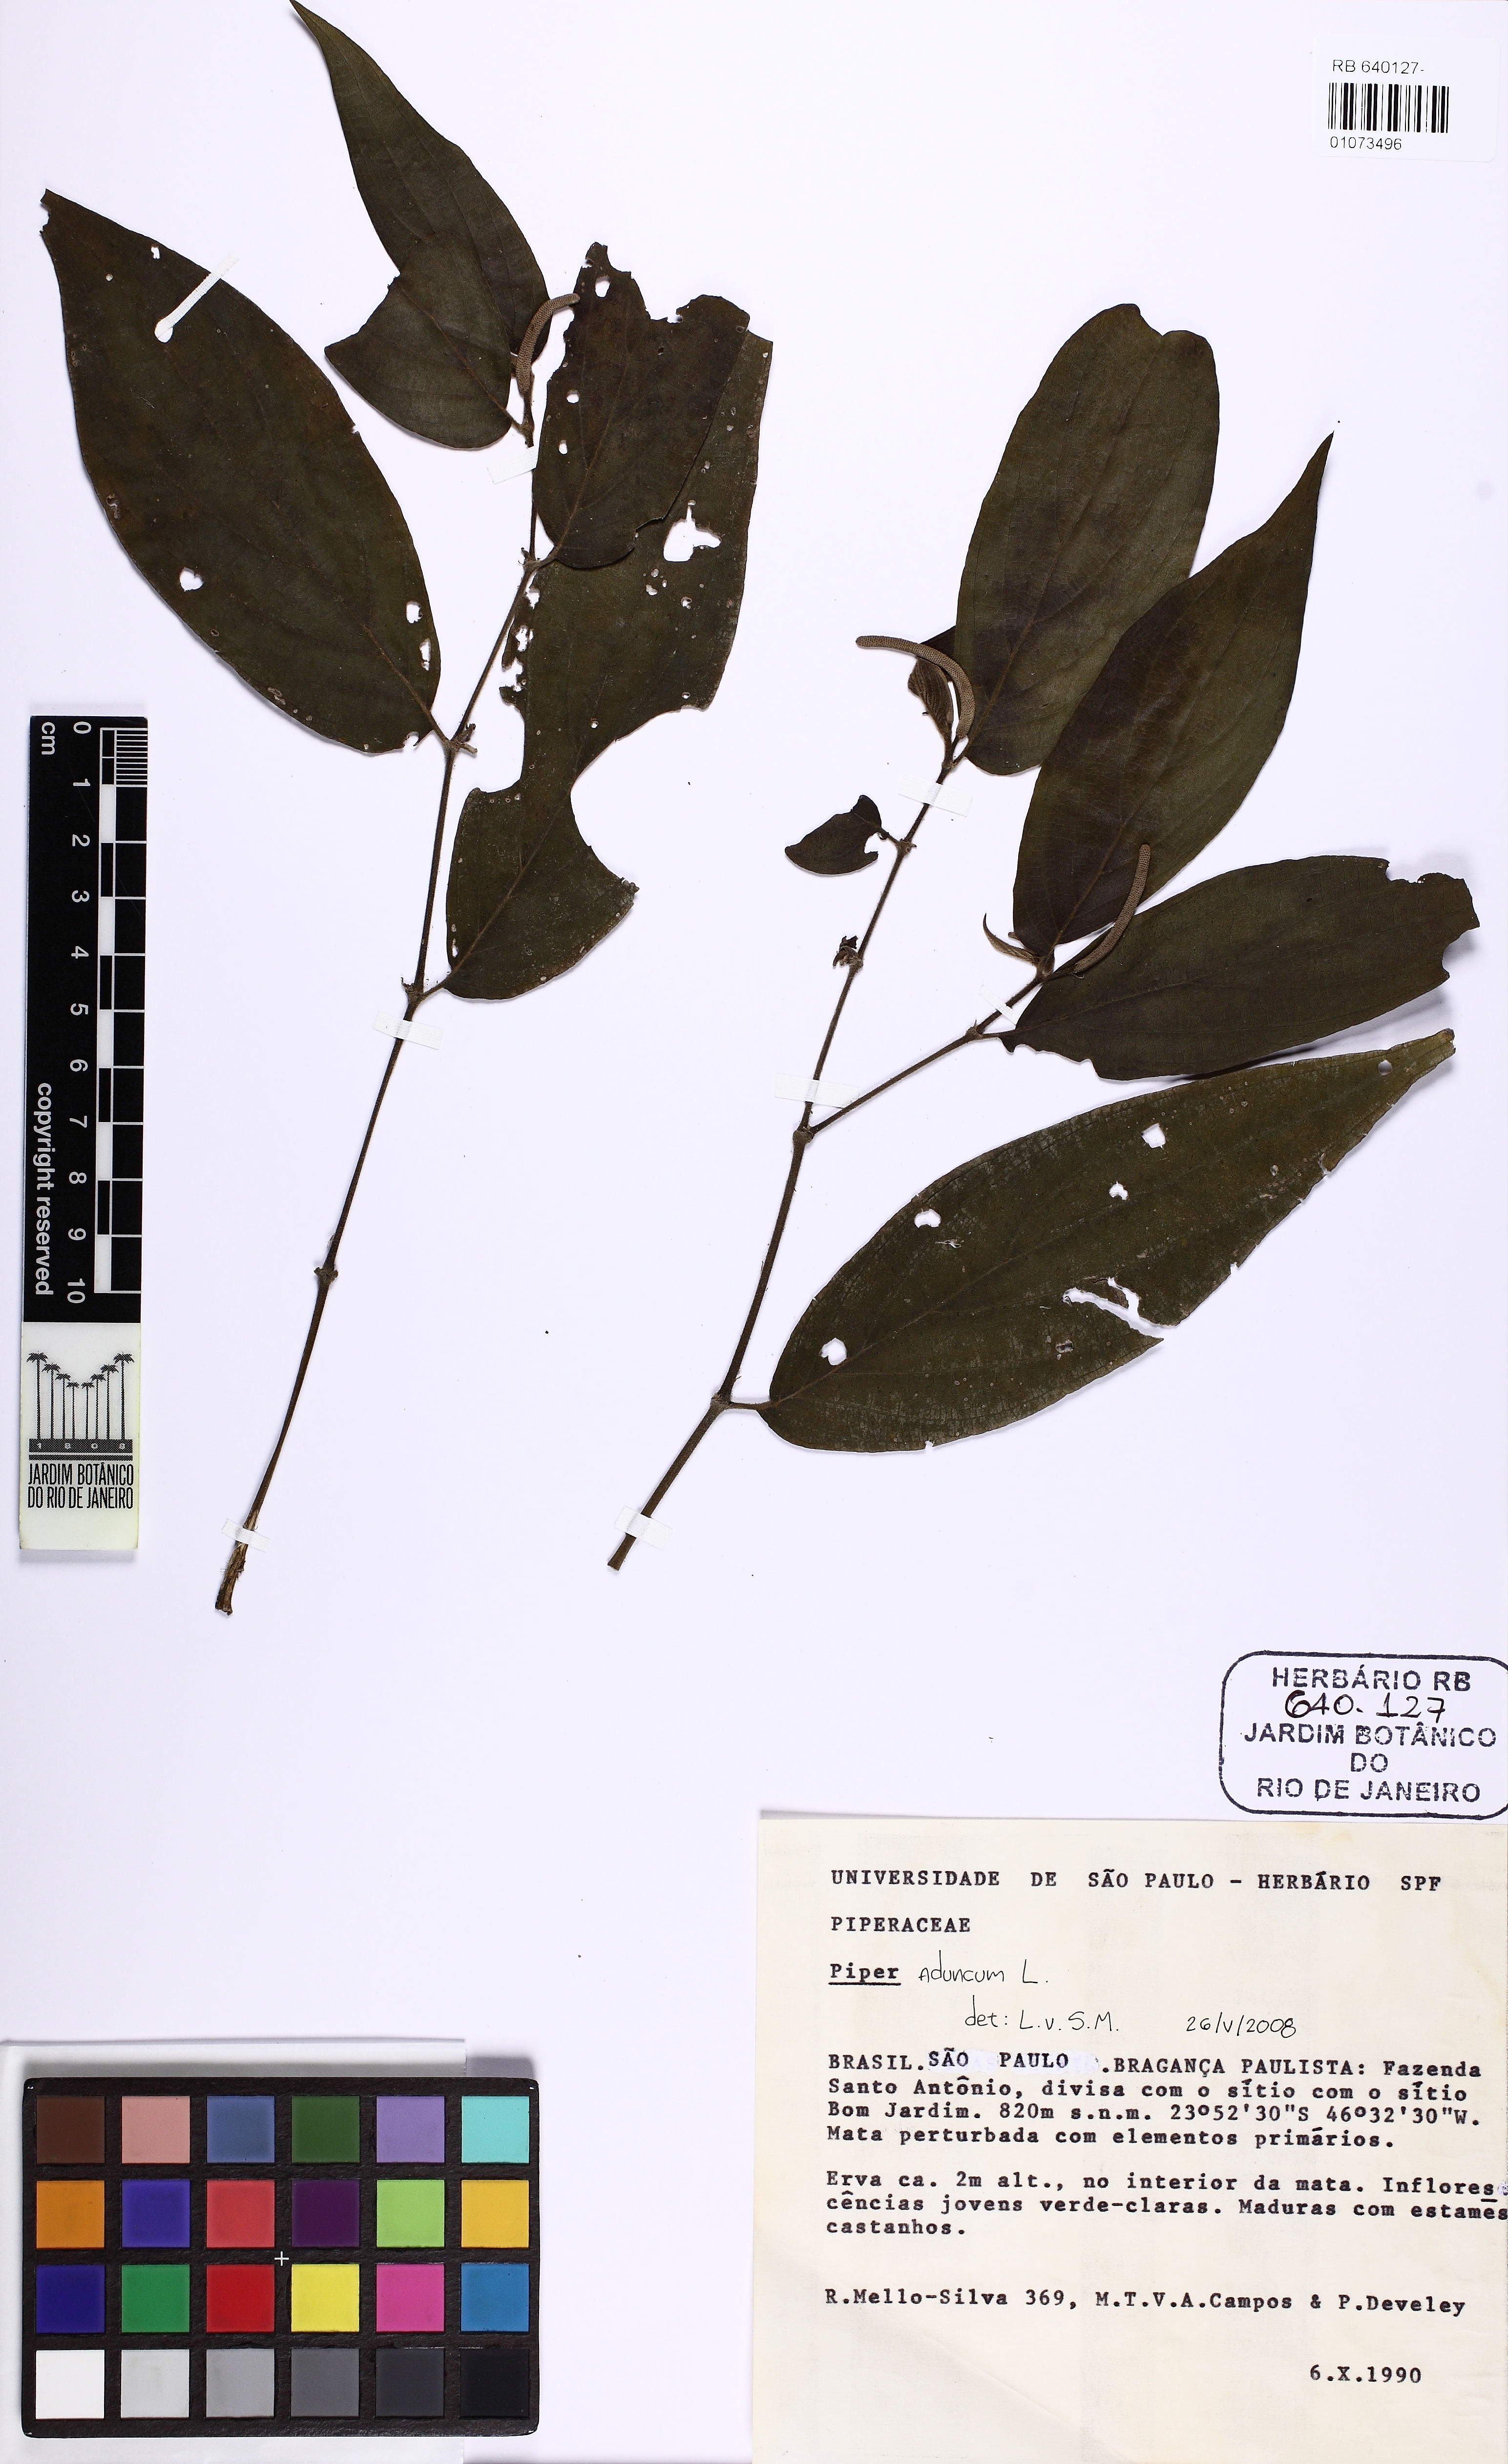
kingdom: Plantae
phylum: Tracheophyta
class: Magnoliopsida
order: Piperales
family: Piperaceae
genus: Piper
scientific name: Piper aduncum
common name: Spiked pepper
